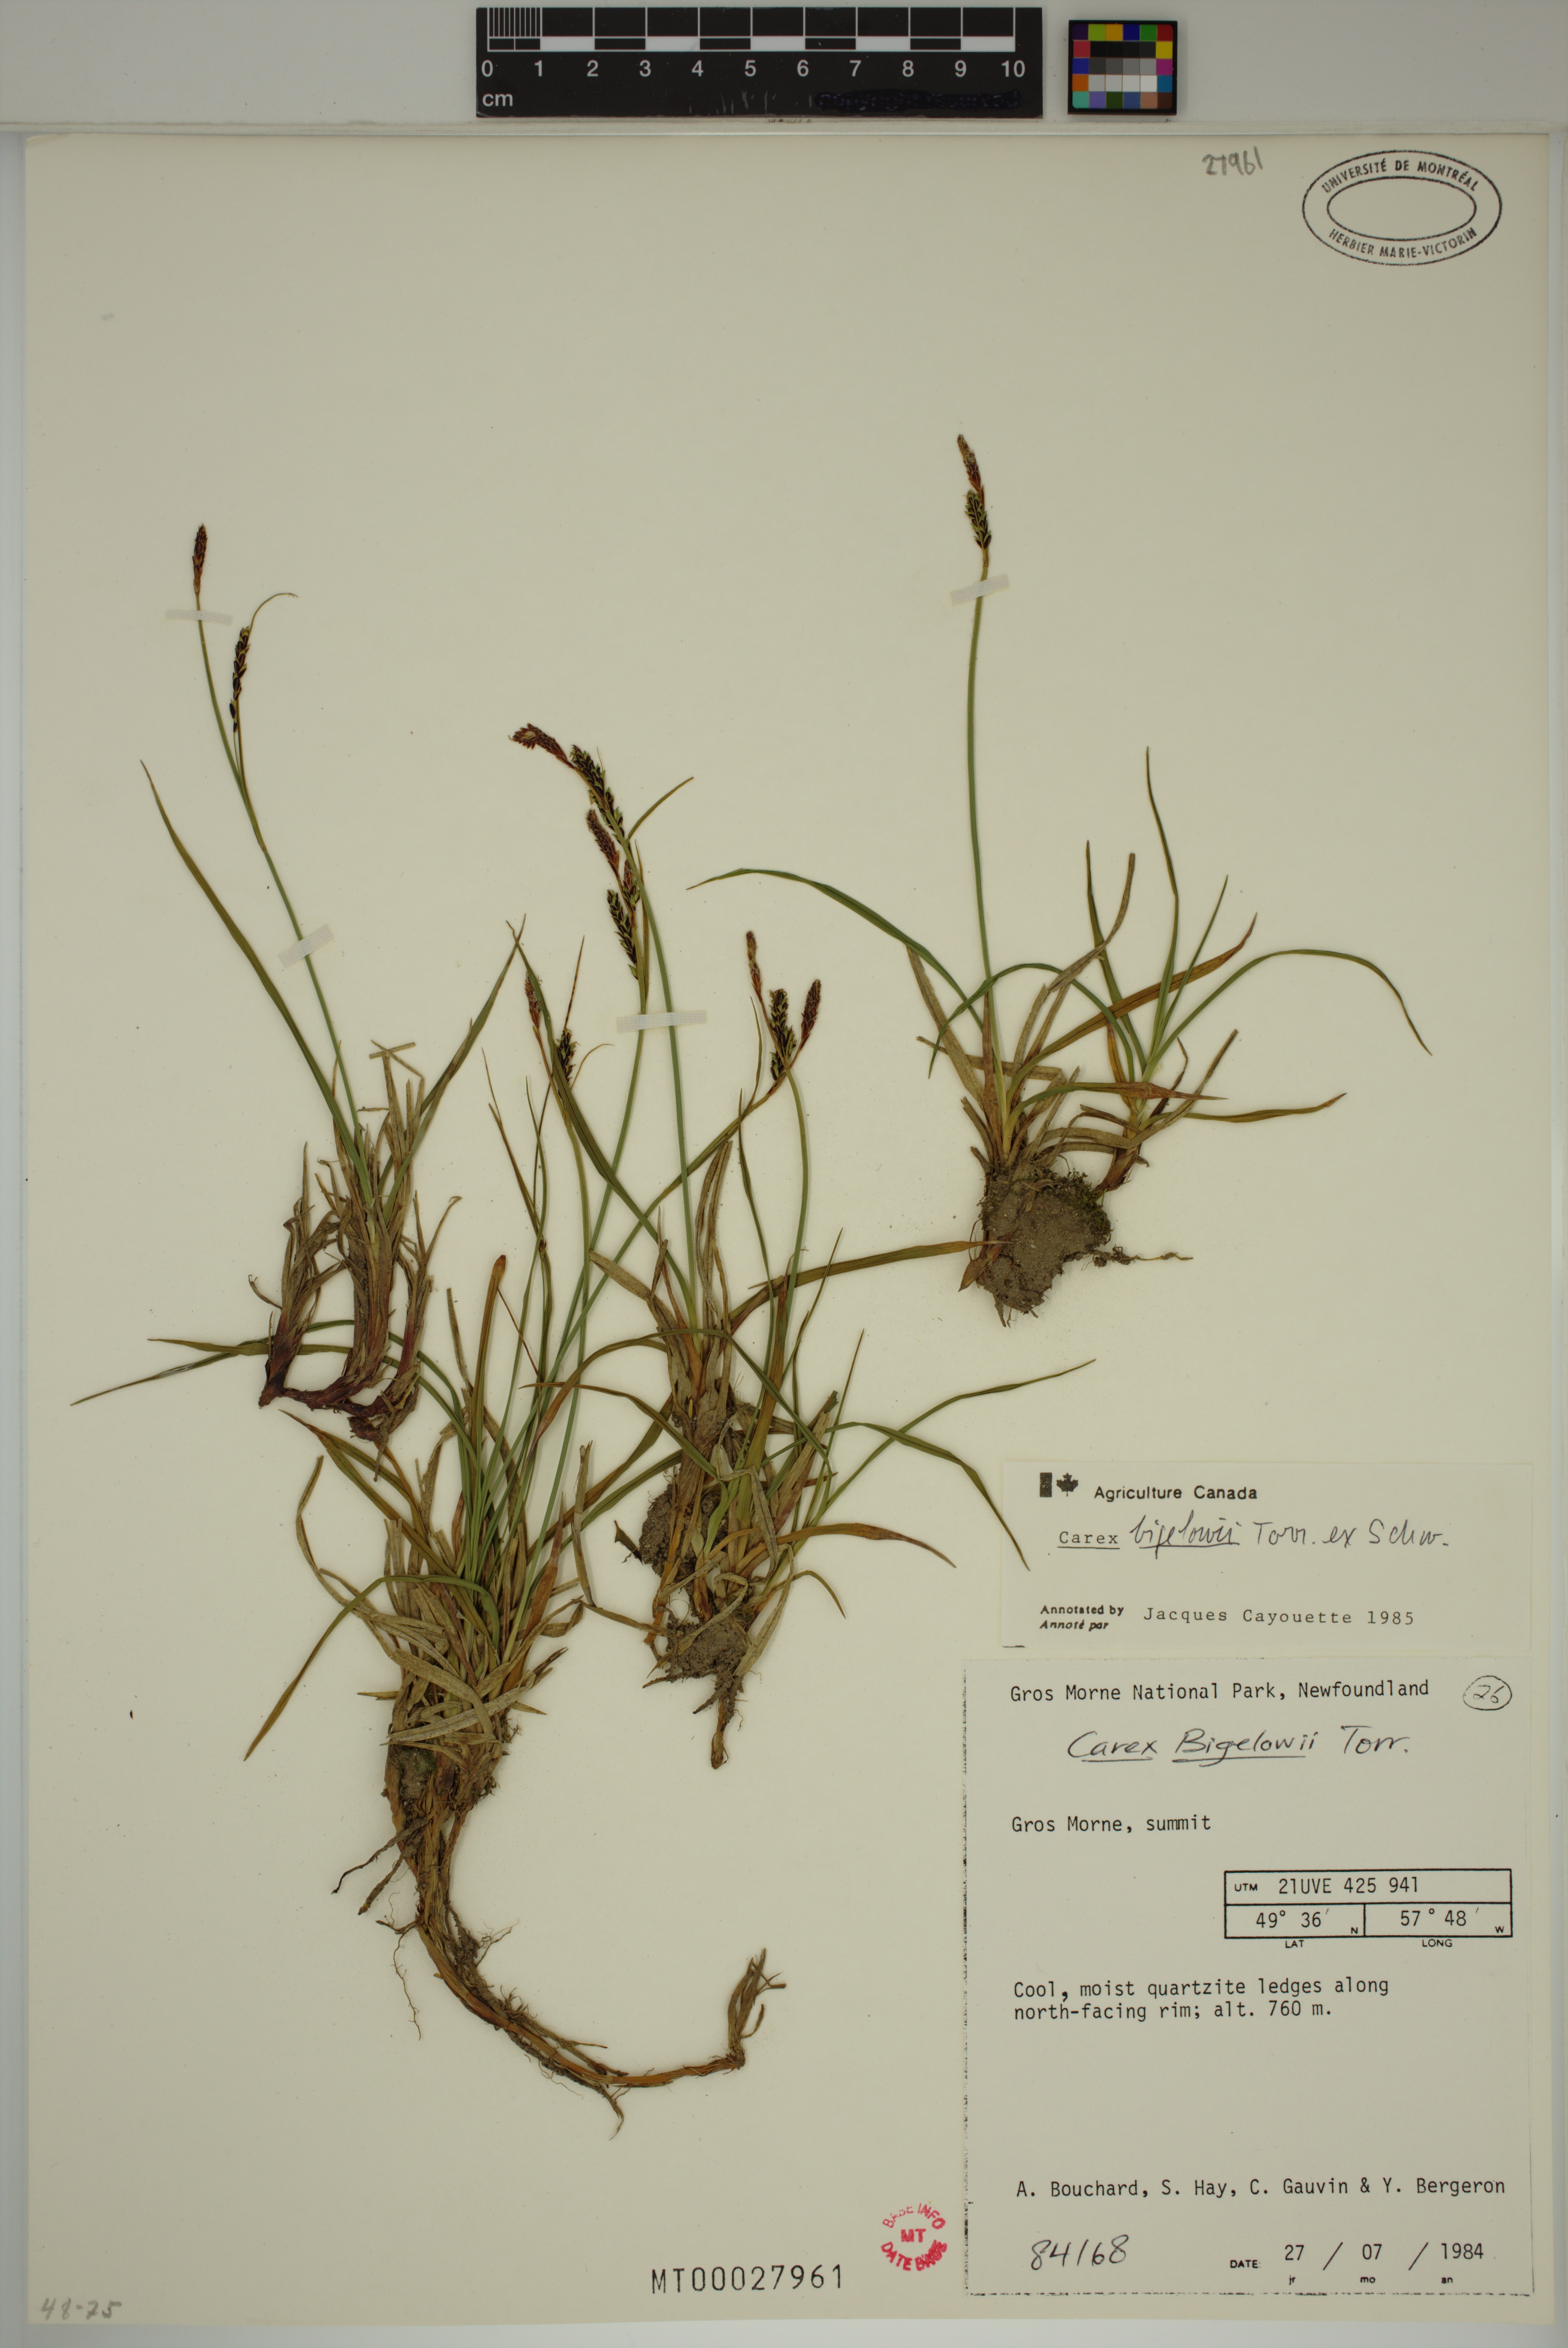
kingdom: Plantae
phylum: Tracheophyta
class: Liliopsida
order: Poales
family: Cyperaceae
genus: Carex
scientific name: Carex bigelowii
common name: Stiff sedge
